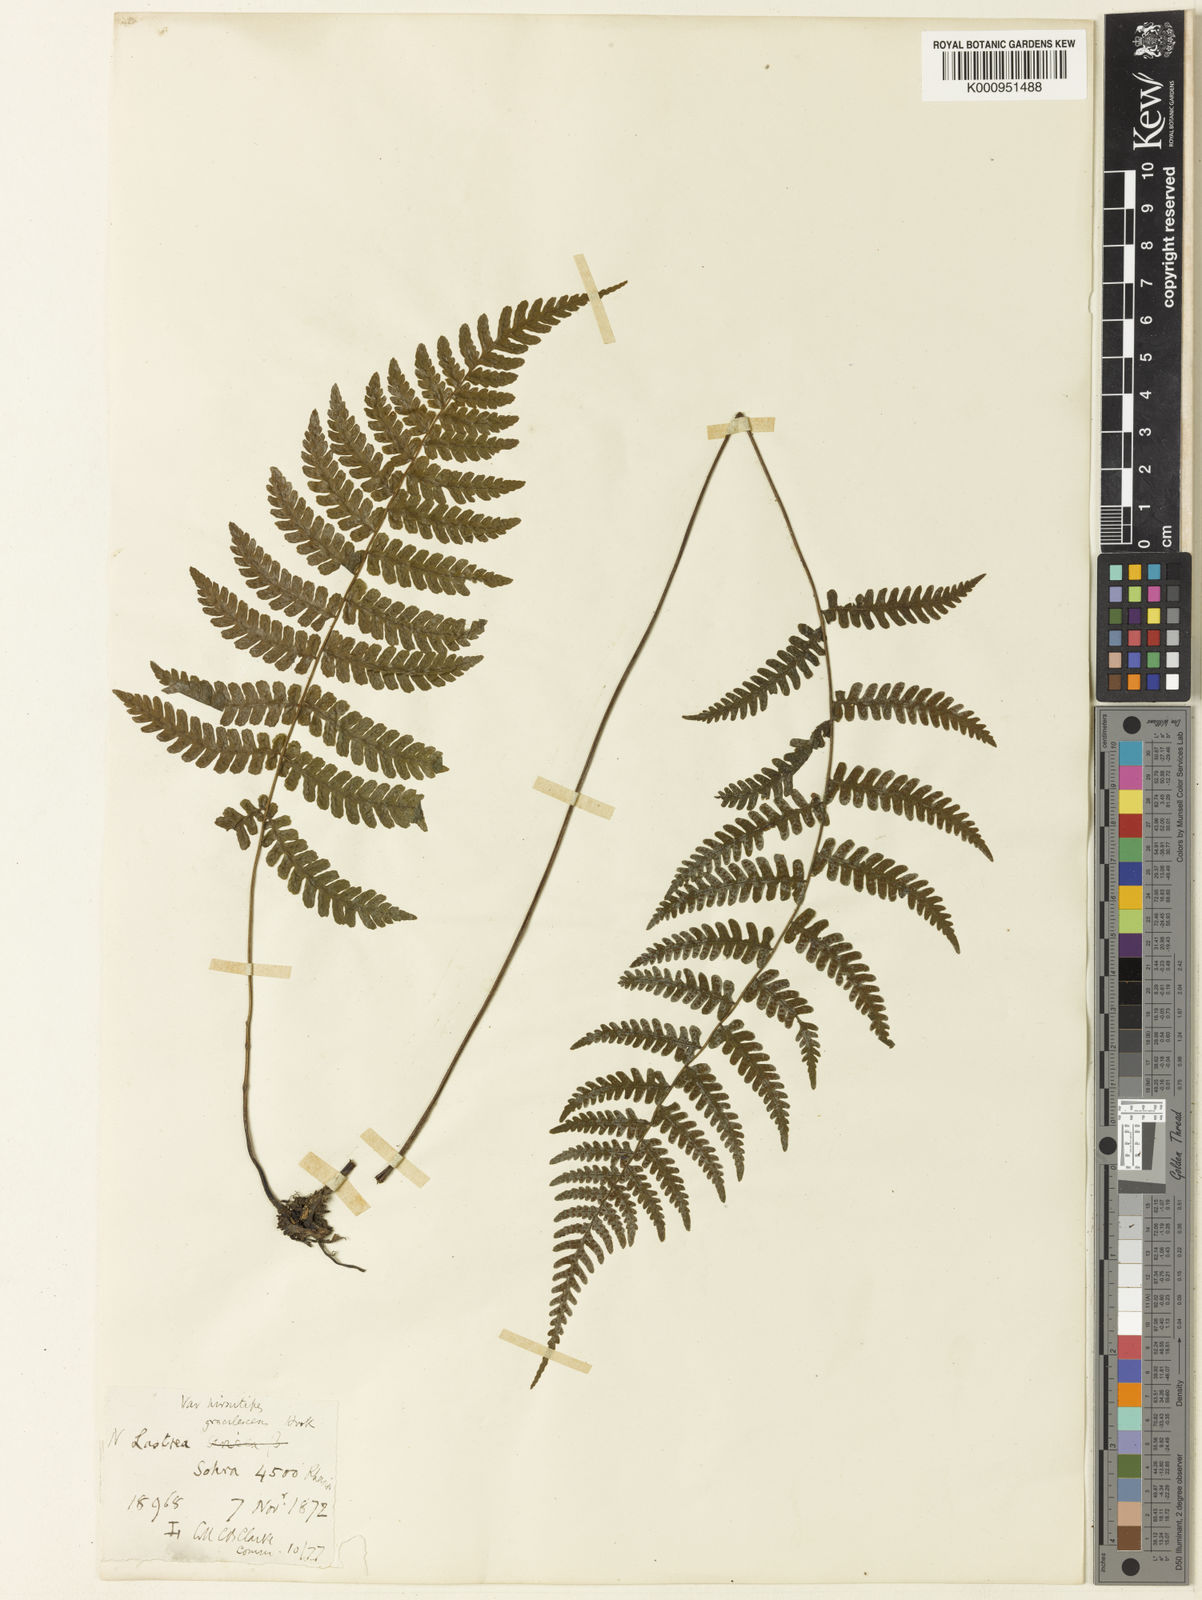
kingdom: Plantae
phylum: Tracheophyta
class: Polypodiopsida
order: Polypodiales
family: Thelypteridaceae
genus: Coryphopteris
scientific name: Coryphopteris hirsutipes
